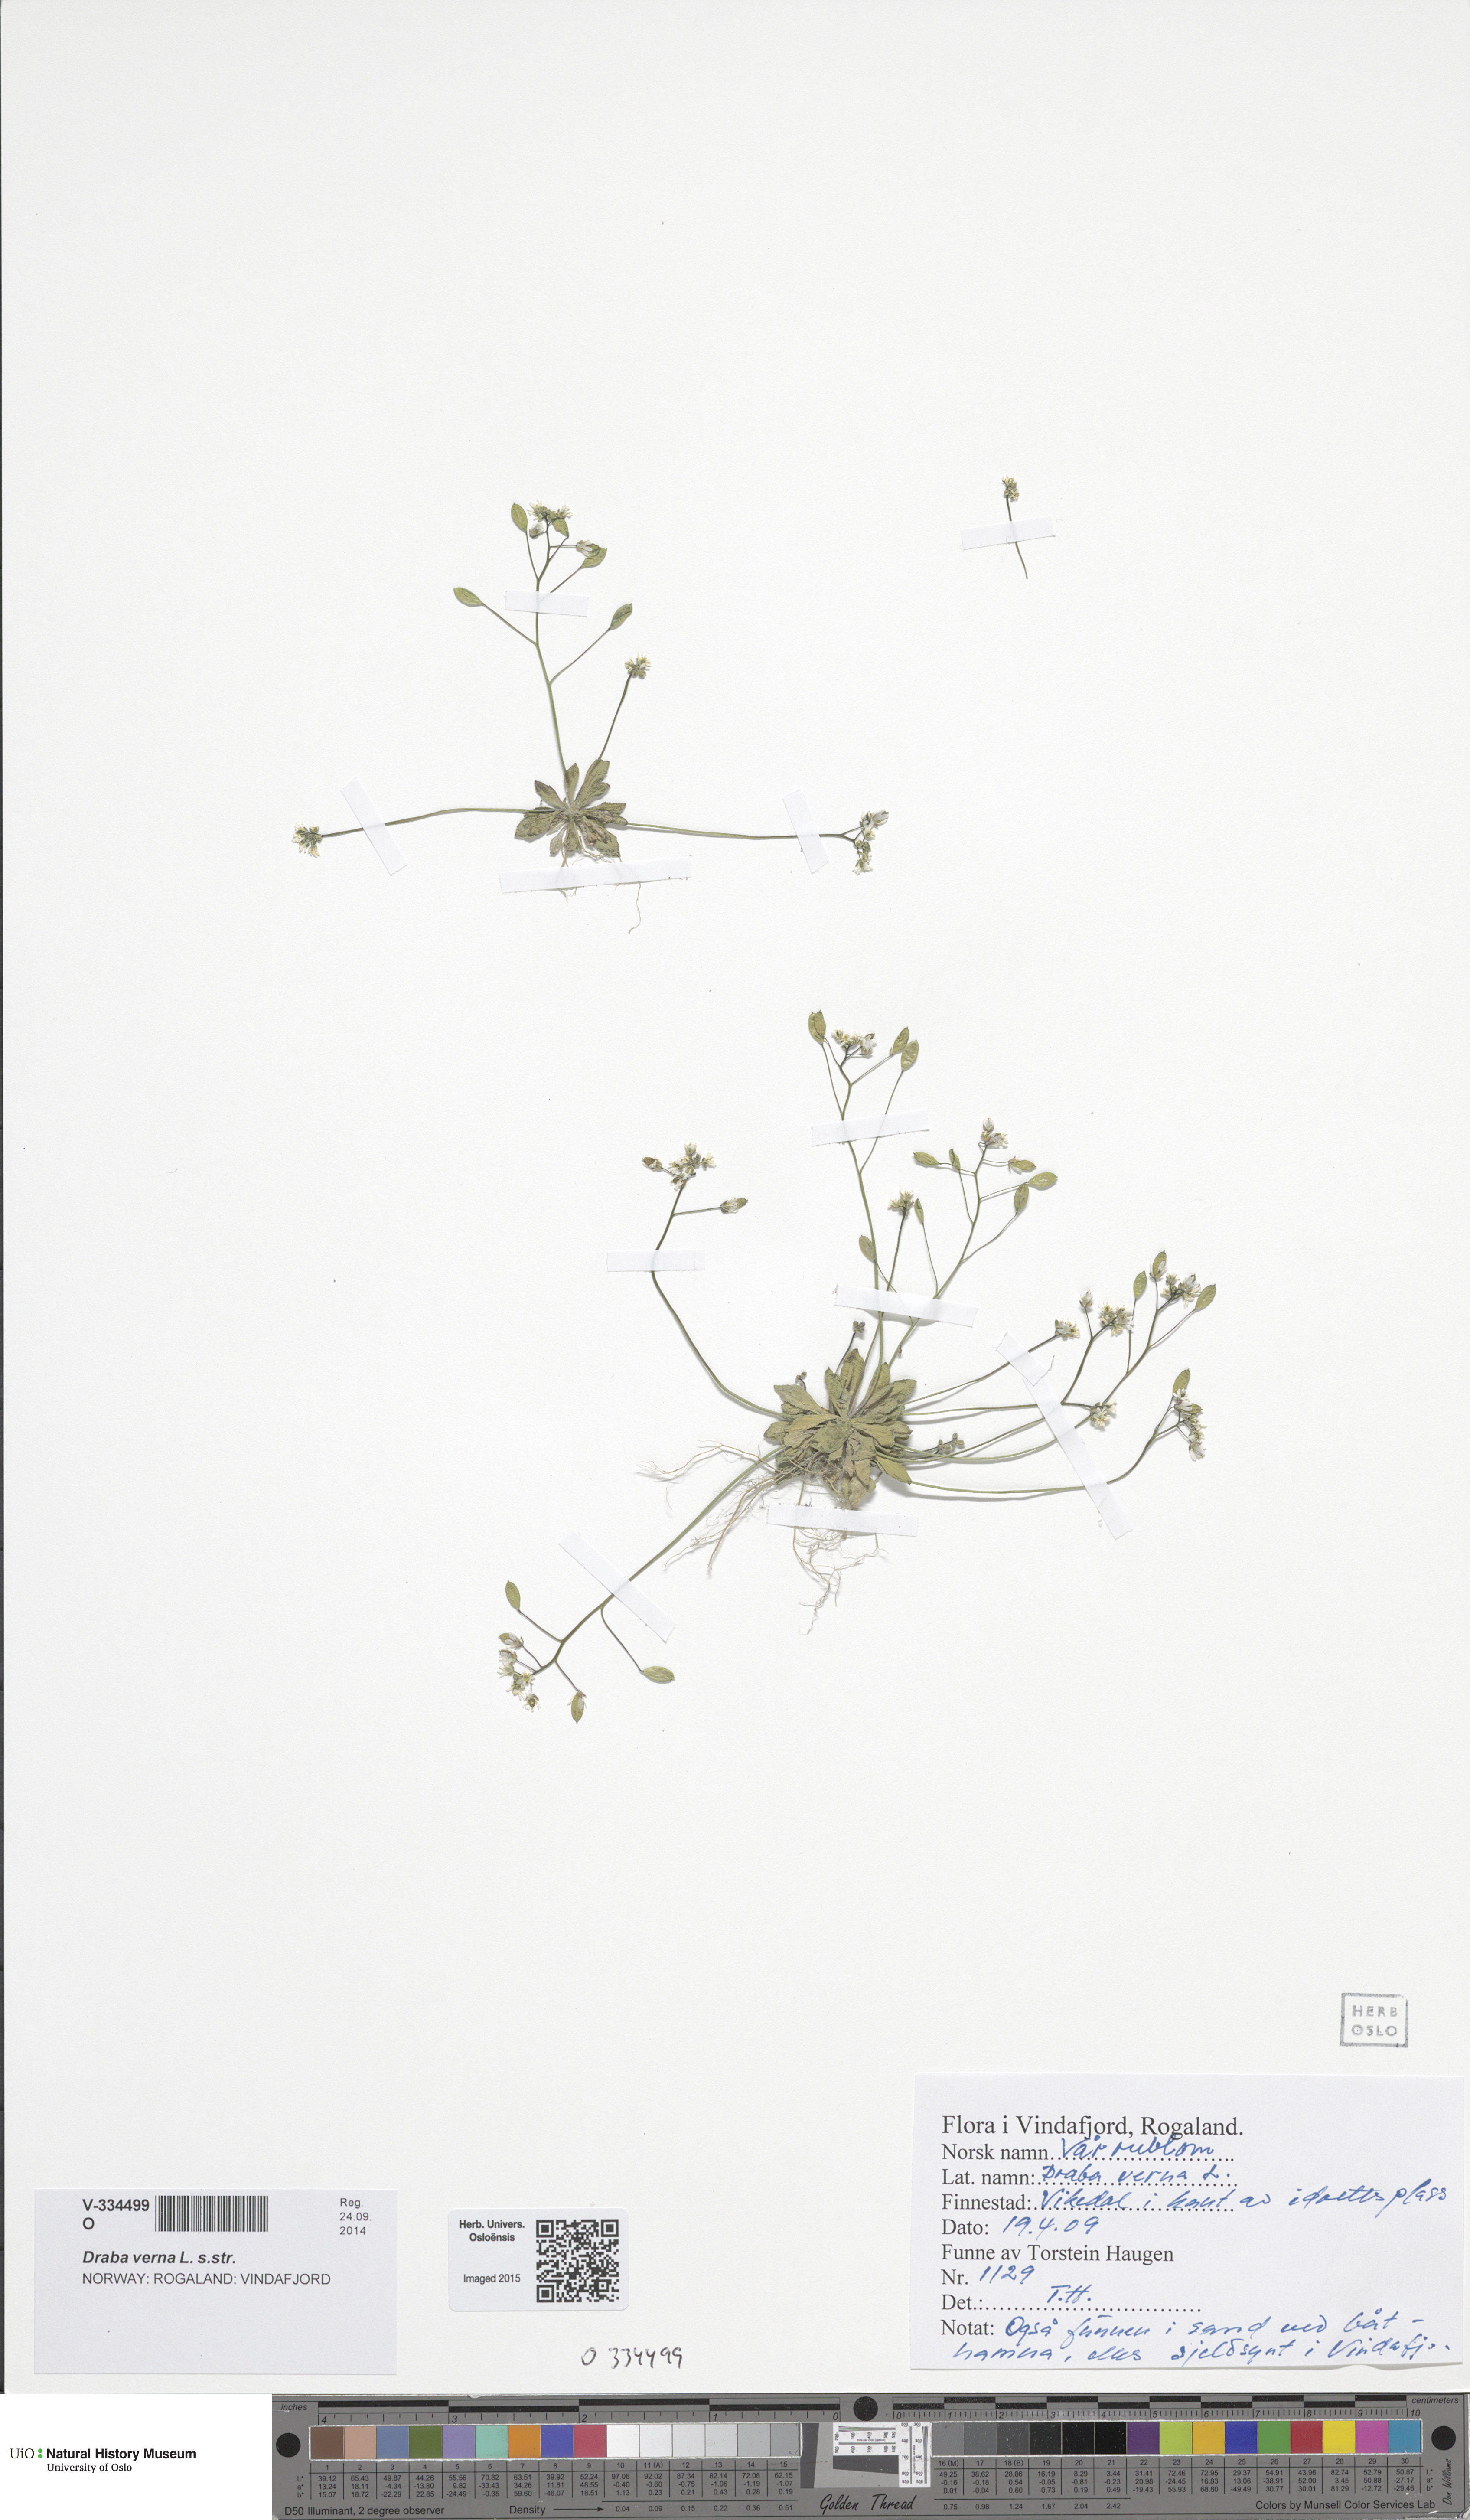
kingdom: Plantae
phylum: Tracheophyta
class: Magnoliopsida
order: Brassicales
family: Brassicaceae
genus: Draba
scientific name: Draba verna
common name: Spring draba
